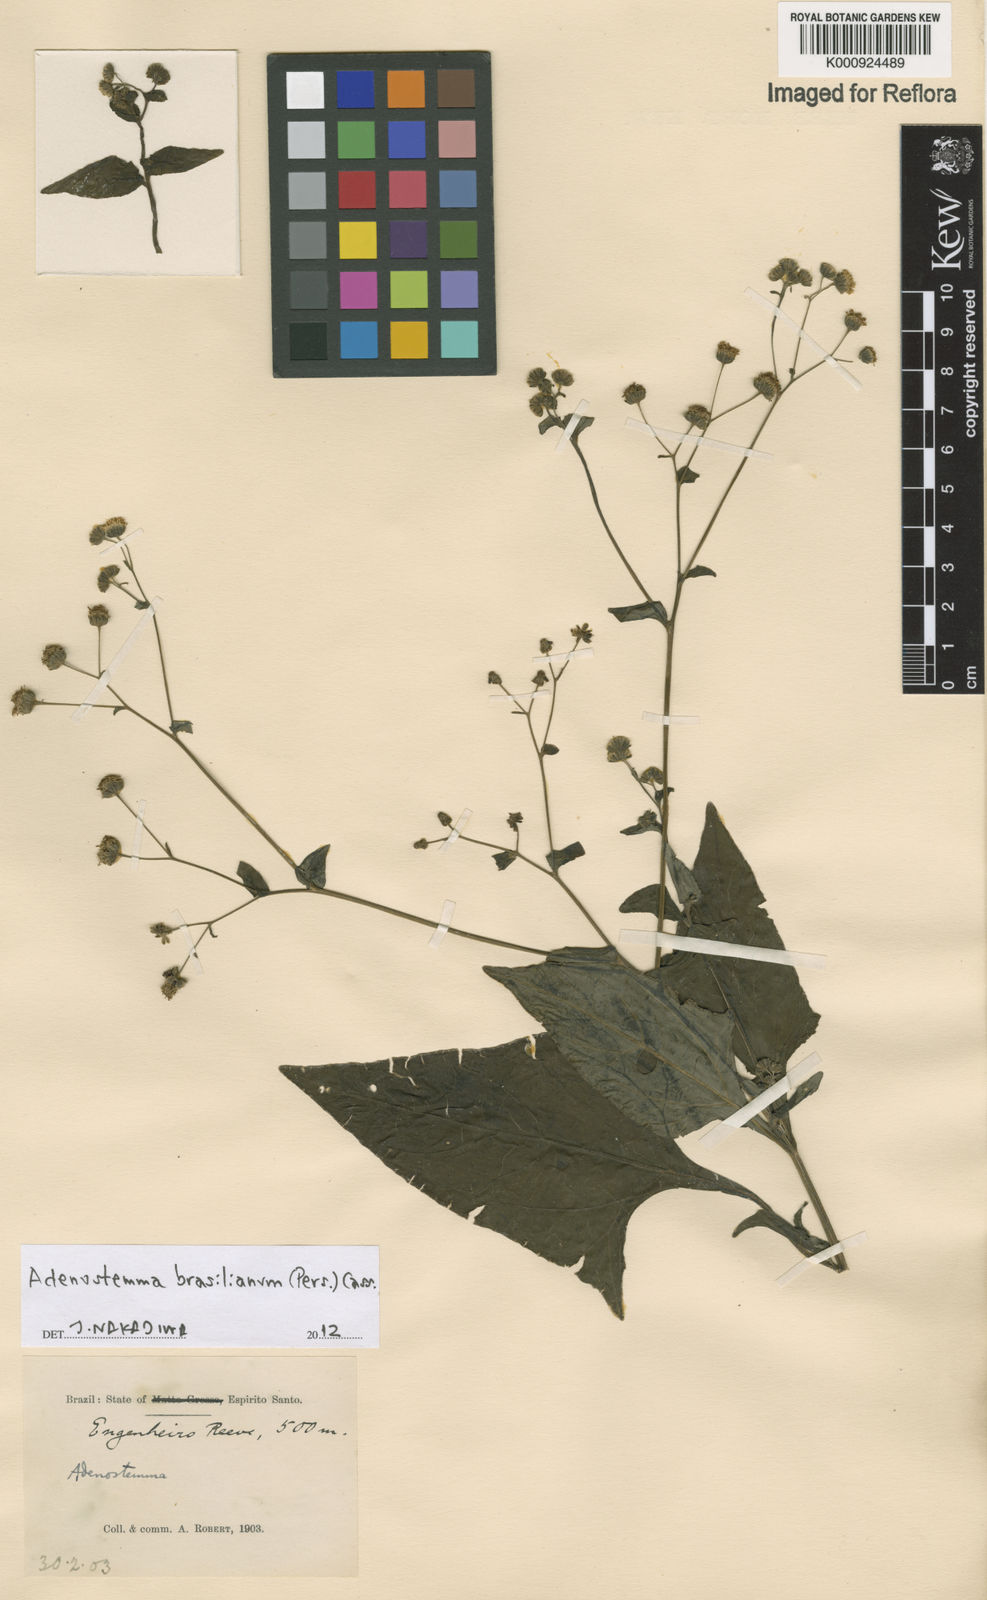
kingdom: Plantae
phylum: Tracheophyta
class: Magnoliopsida
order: Asterales
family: Asteraceae
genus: Adenostemma
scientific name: Adenostemma
